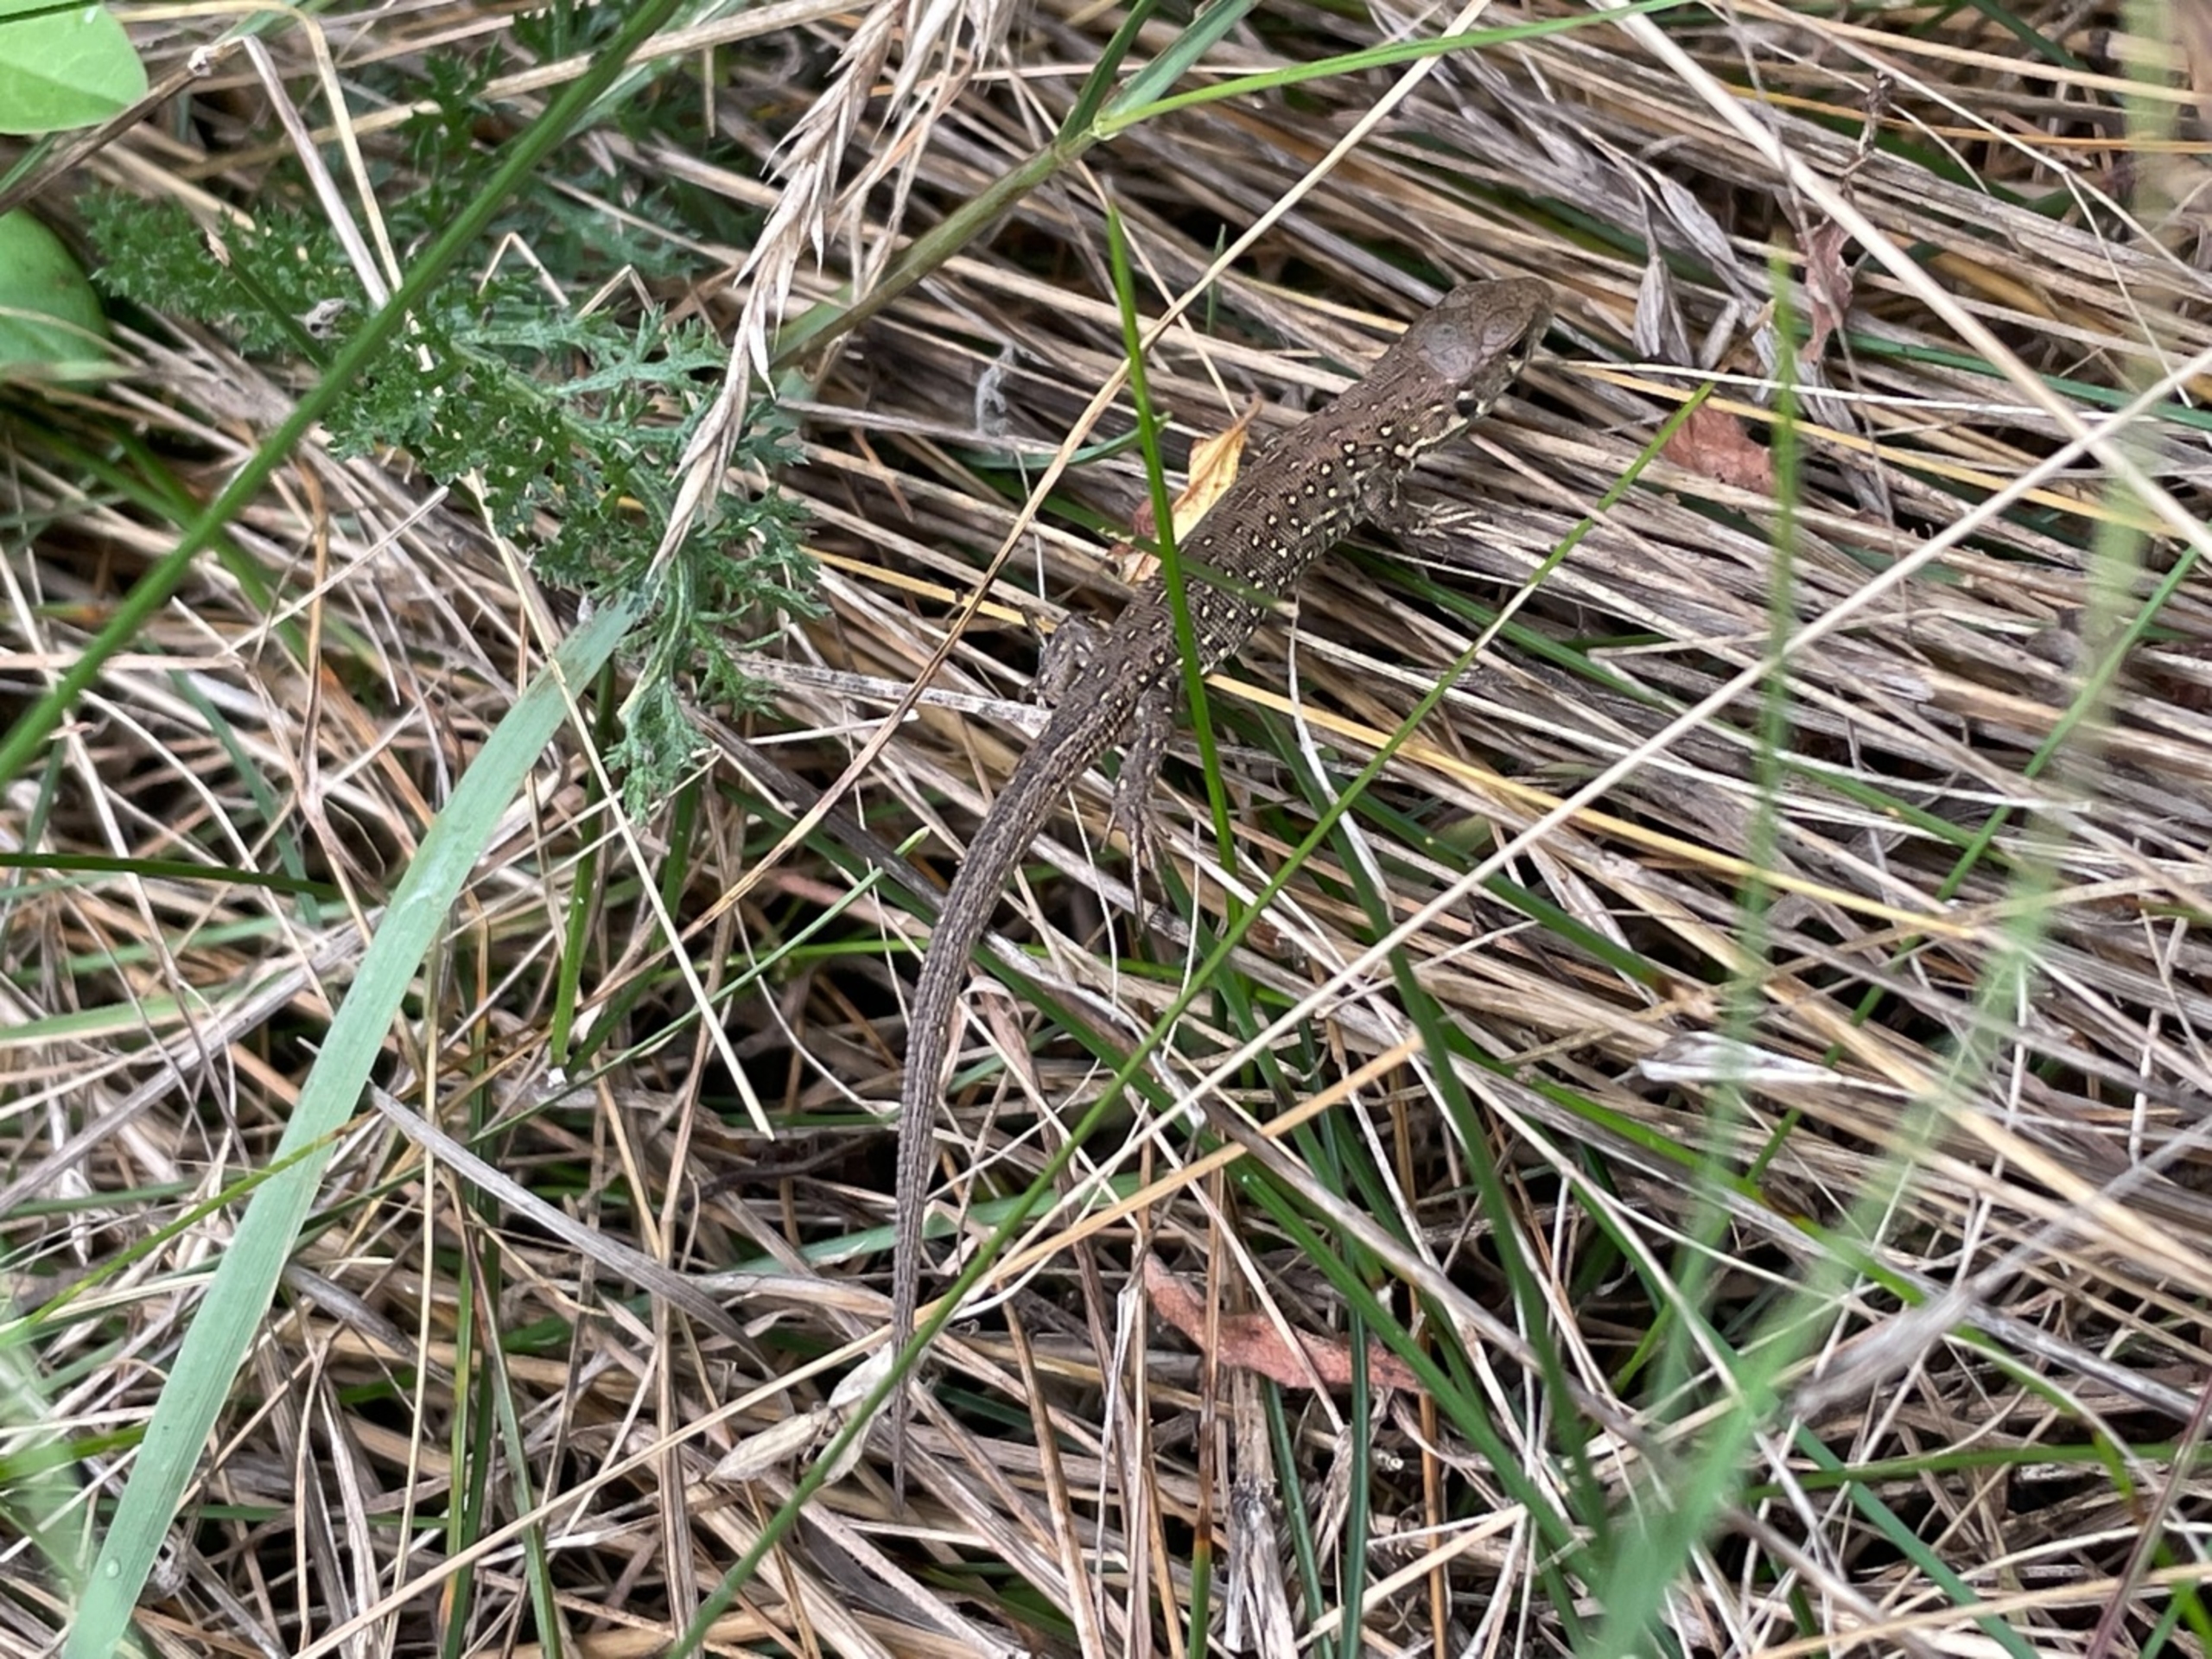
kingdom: Animalia
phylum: Chordata
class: Squamata
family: Lacertidae
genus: Lacerta
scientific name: Lacerta agilis
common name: Markfirben
